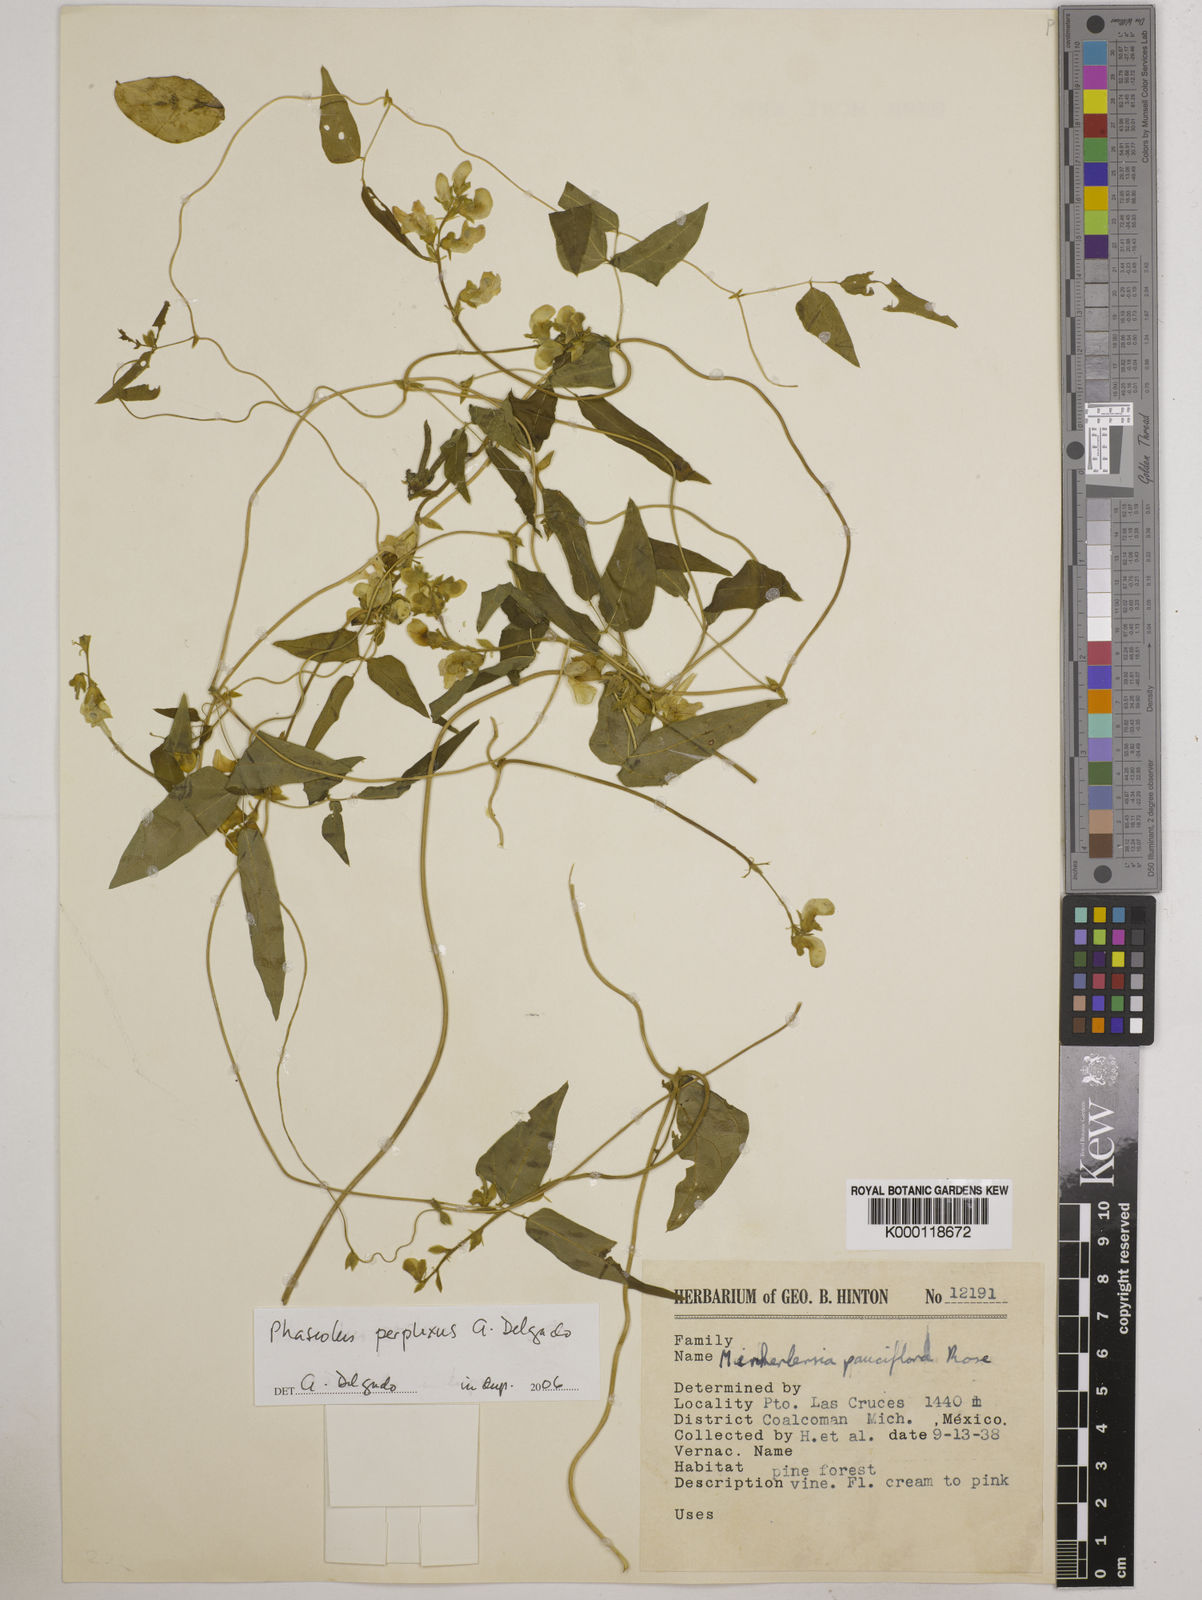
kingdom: Plantae
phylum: Tracheophyta
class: Magnoliopsida
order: Fabales
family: Fabaceae
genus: Phaseolus
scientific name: Phaseolus perplexus
